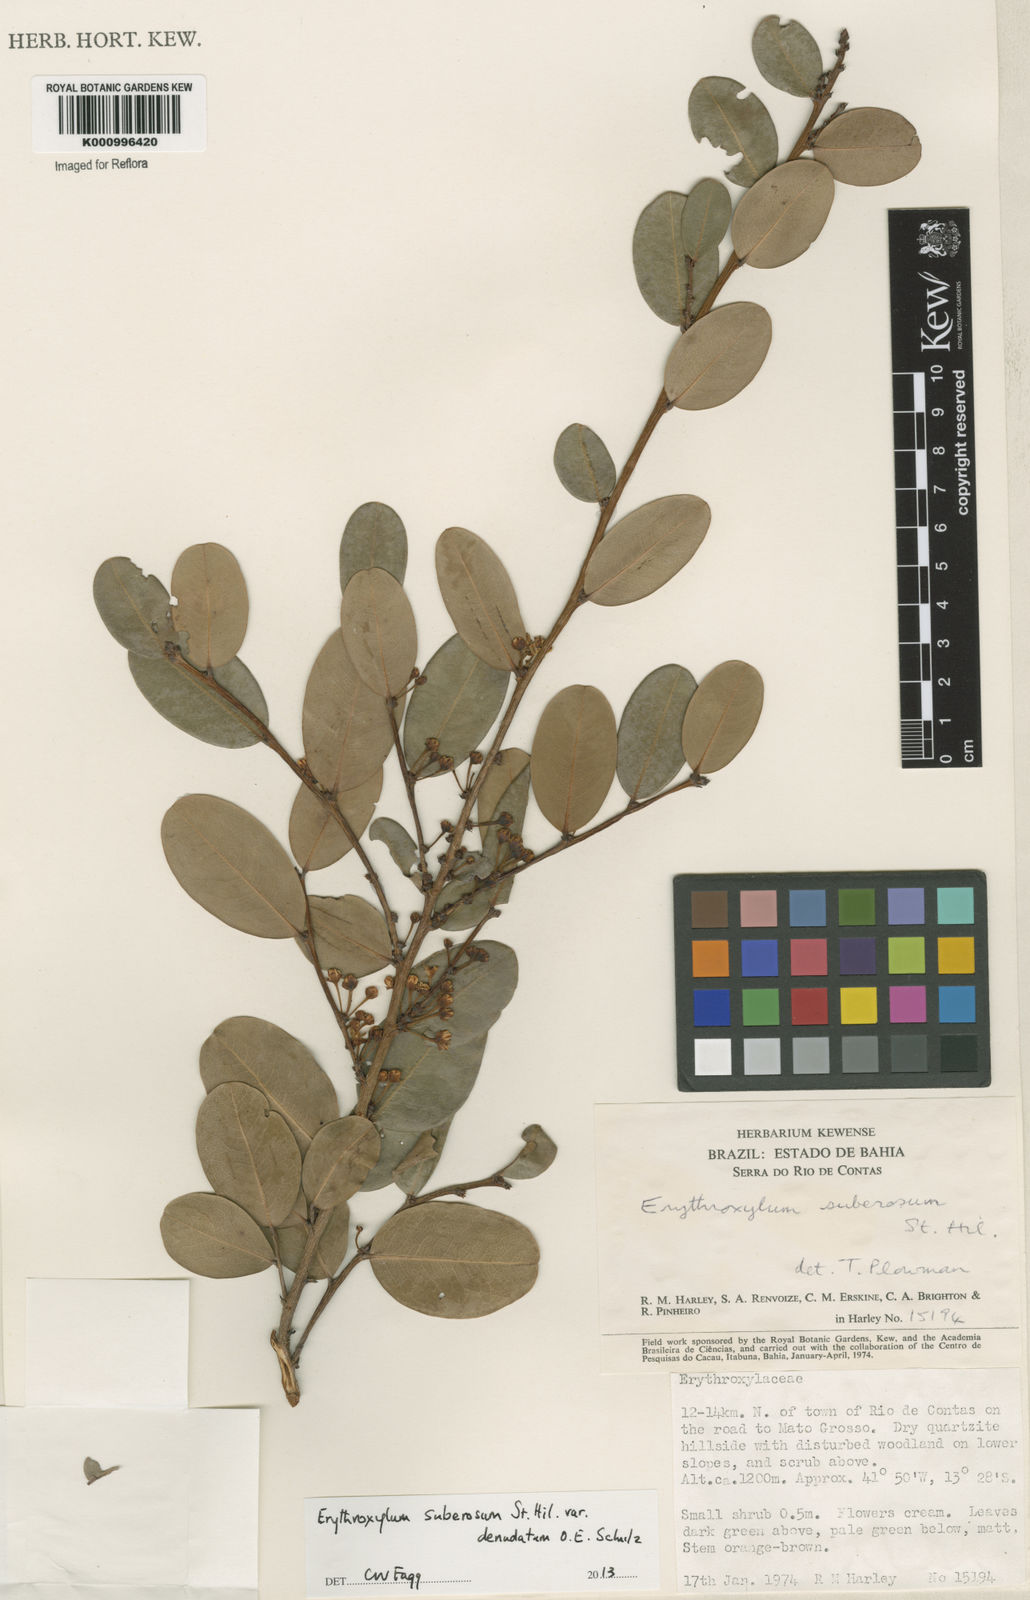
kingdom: Plantae
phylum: Tracheophyta
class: Magnoliopsida
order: Malpighiales
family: Erythroxylaceae
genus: Erythroxylum
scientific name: Erythroxylum rimosum
